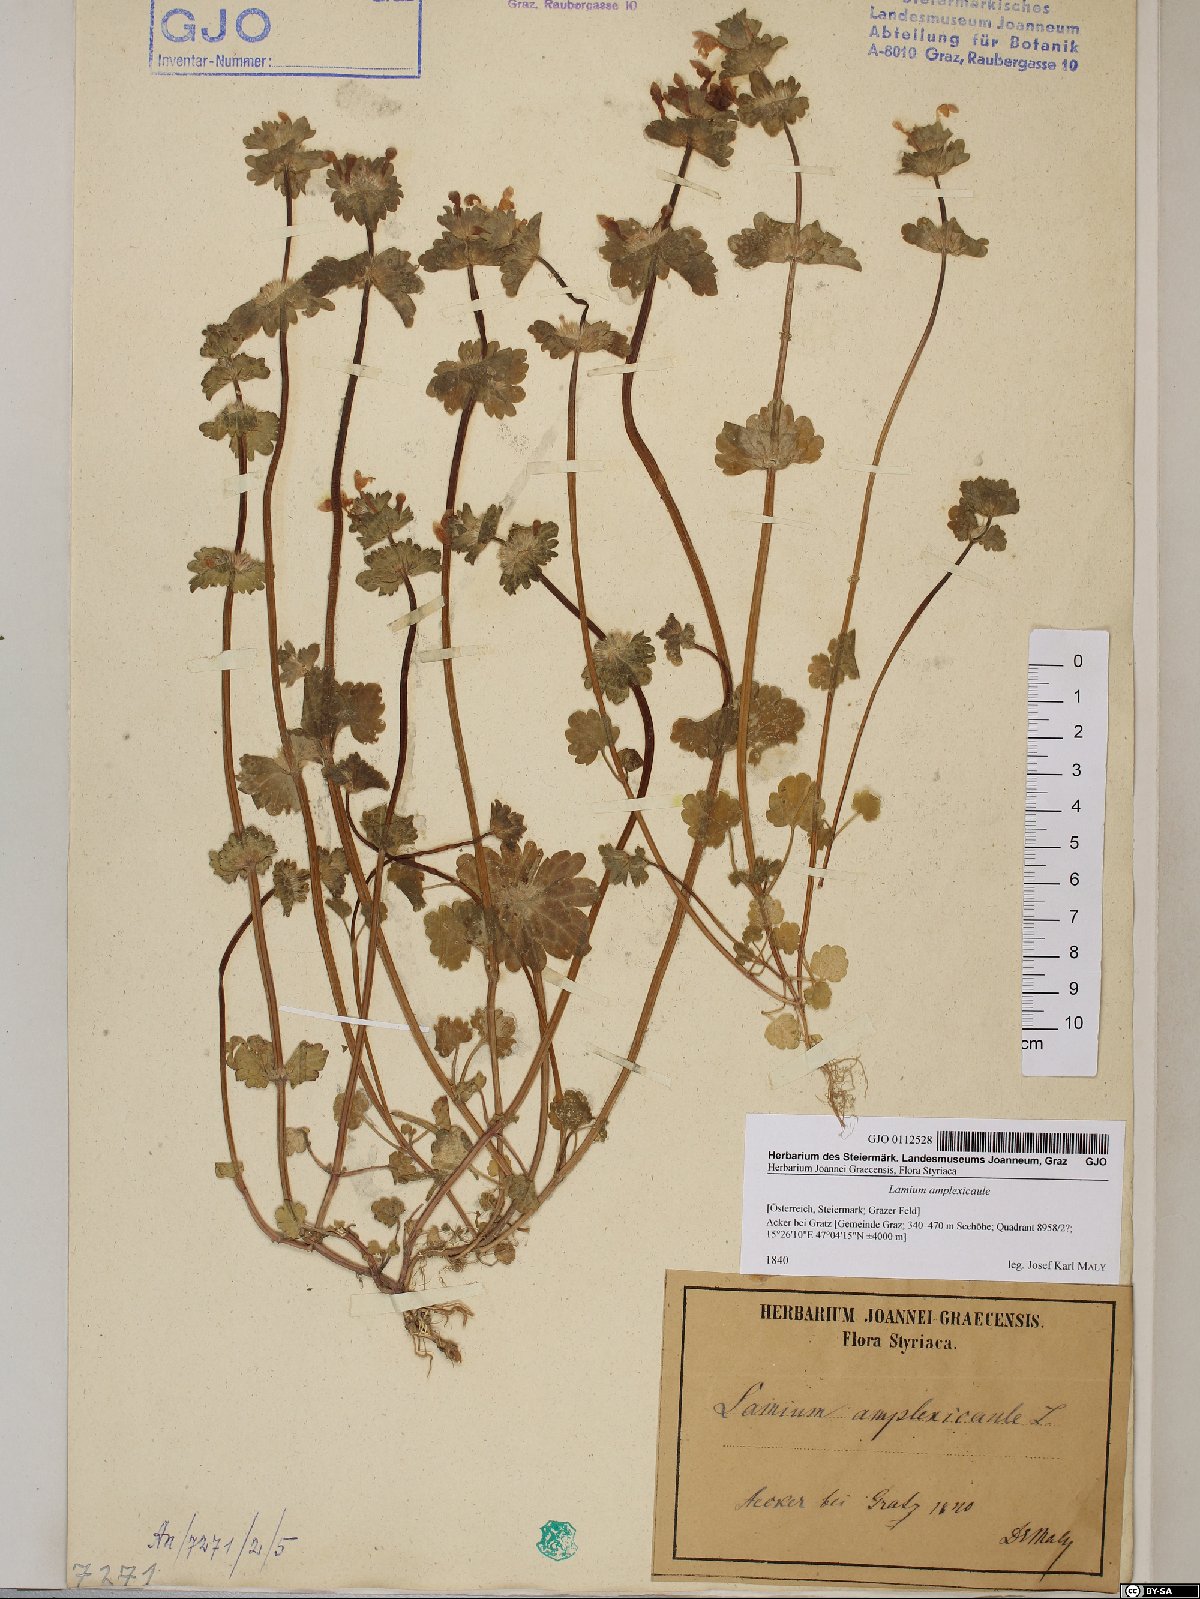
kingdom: Plantae
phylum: Tracheophyta
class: Magnoliopsida
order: Lamiales
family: Lamiaceae
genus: Lamium
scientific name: Lamium amplexicaule
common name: Henbit dead-nettle
